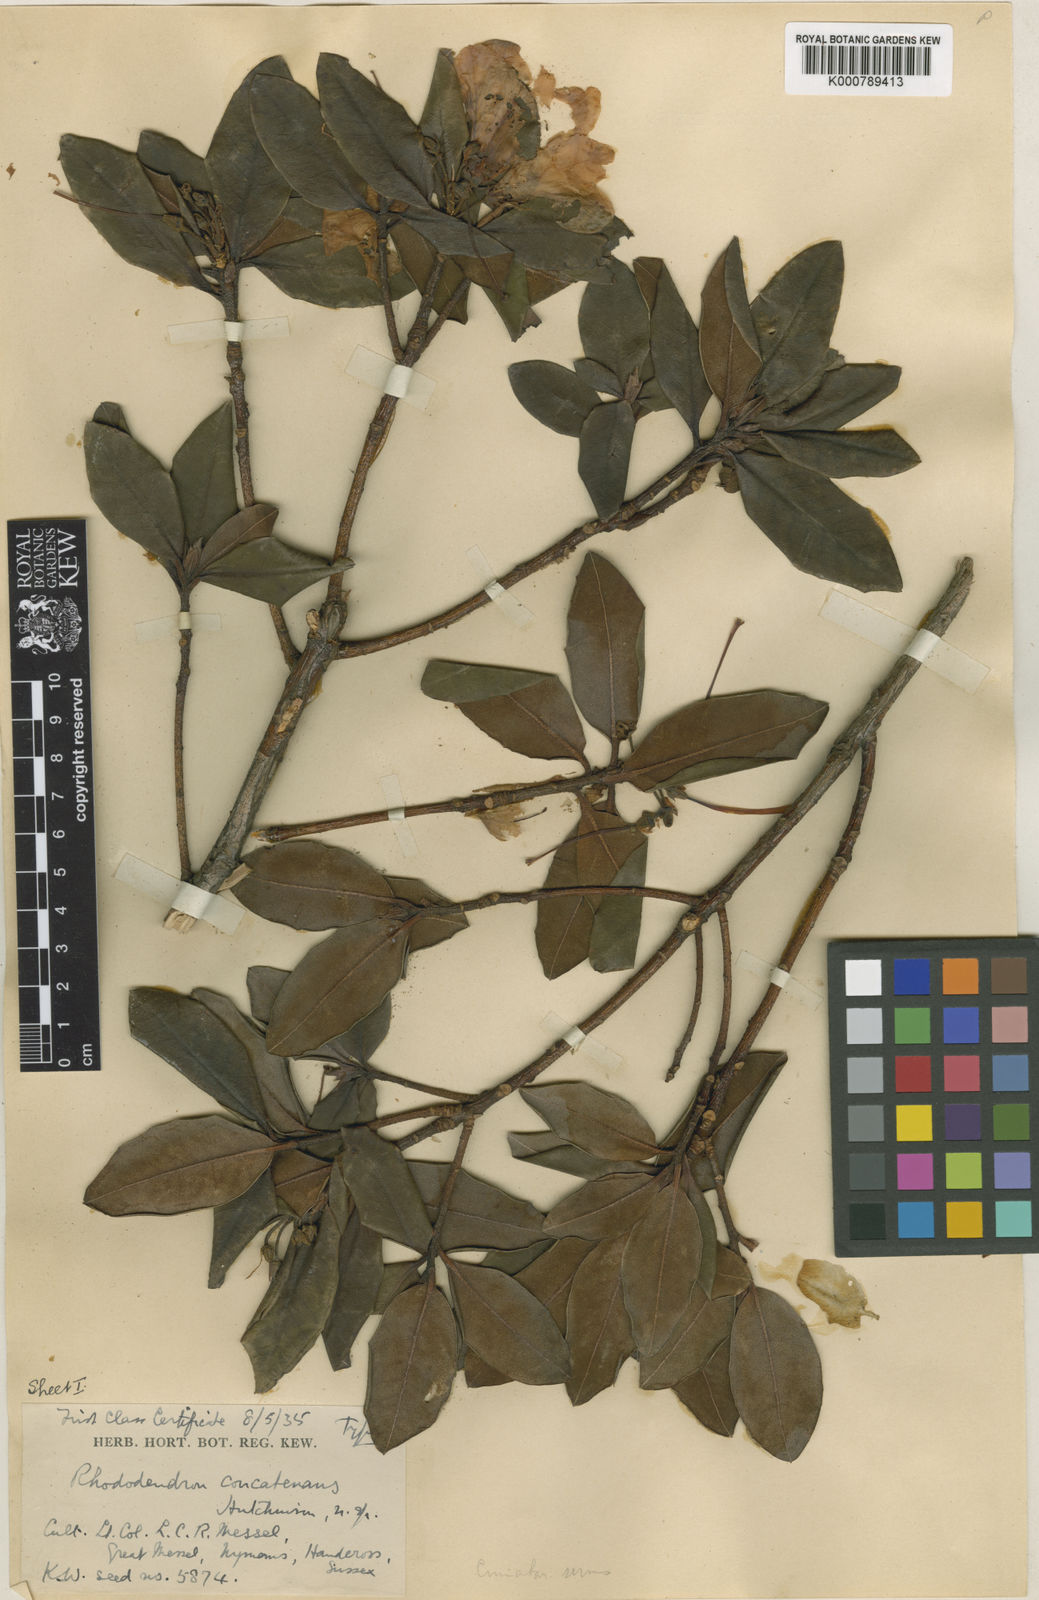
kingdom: Plantae
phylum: Tracheophyta
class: Magnoliopsida
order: Ericales
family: Ericaceae
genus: Rhododendron
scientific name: Rhododendron cinnabarinum
